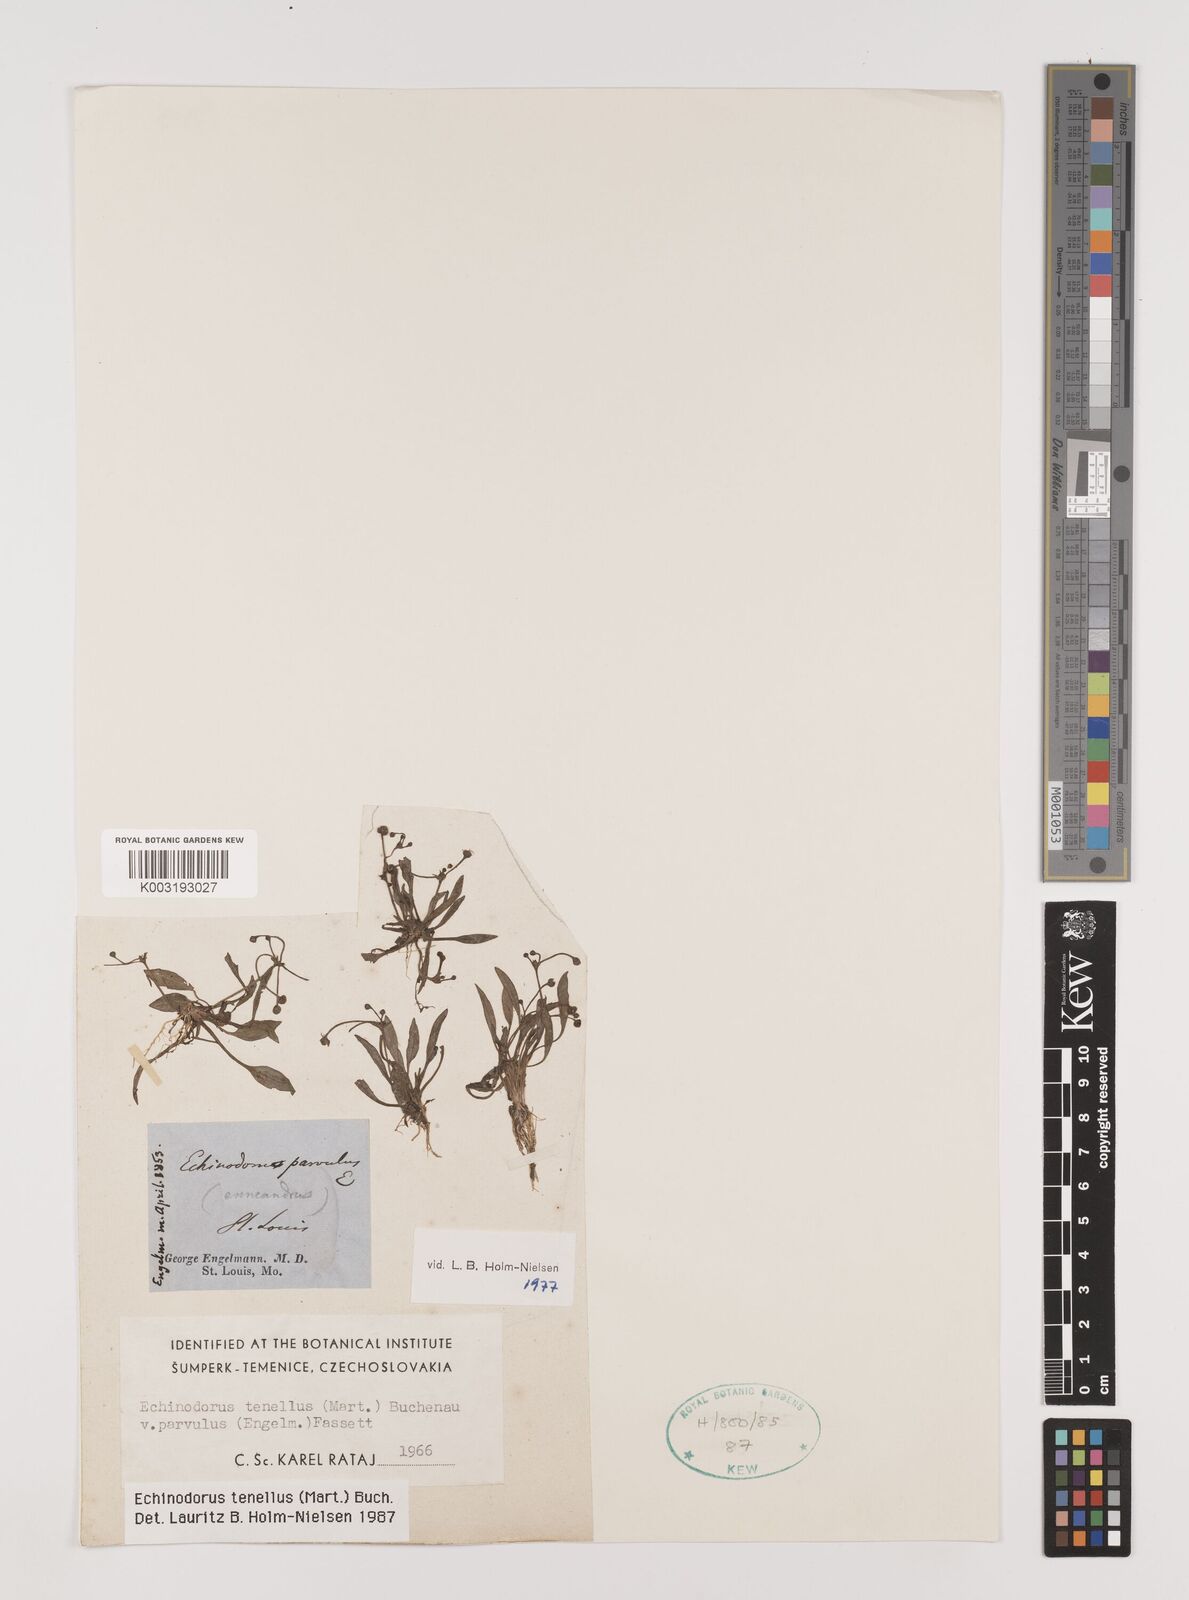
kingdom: Plantae
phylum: Tracheophyta
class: Liliopsida
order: Alismatales
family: Alismataceae
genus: Helanthium
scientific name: Helanthium tenellum
